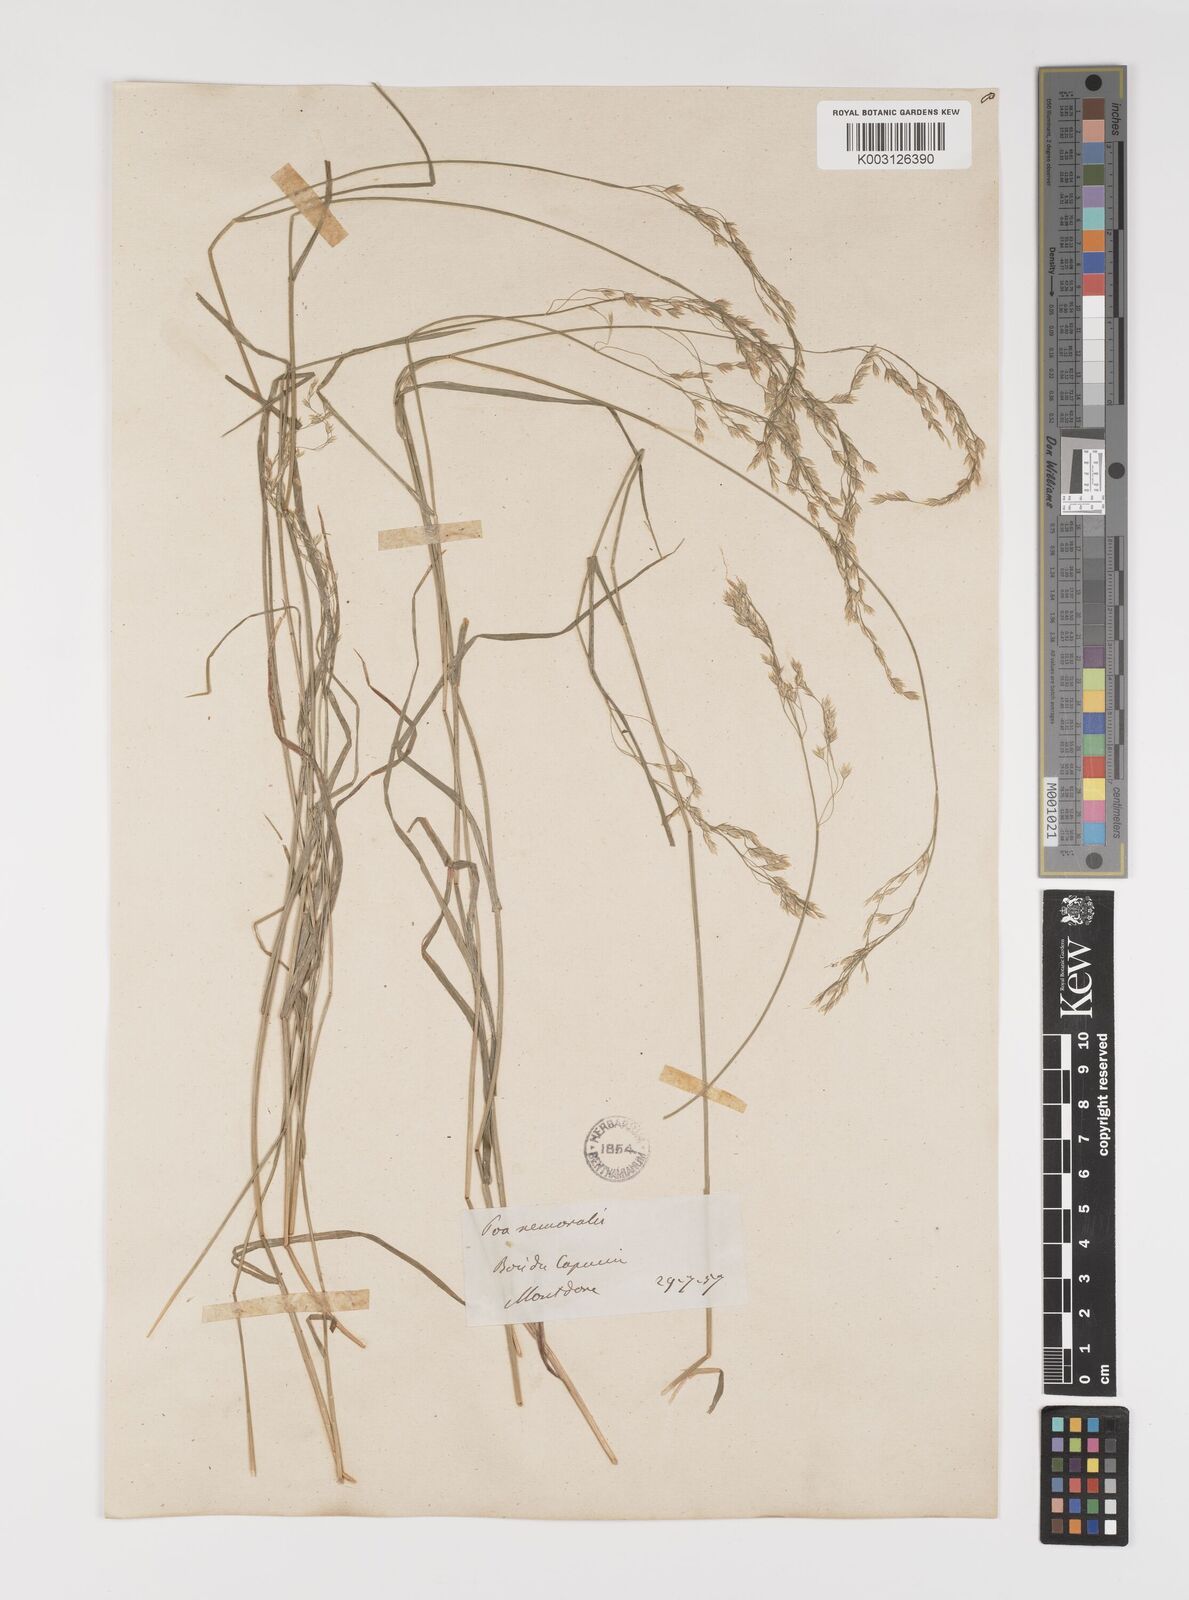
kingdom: Plantae
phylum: Tracheophyta
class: Liliopsida
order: Poales
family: Poaceae
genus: Poa
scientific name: Poa glauca
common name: Glaucous bluegrass
